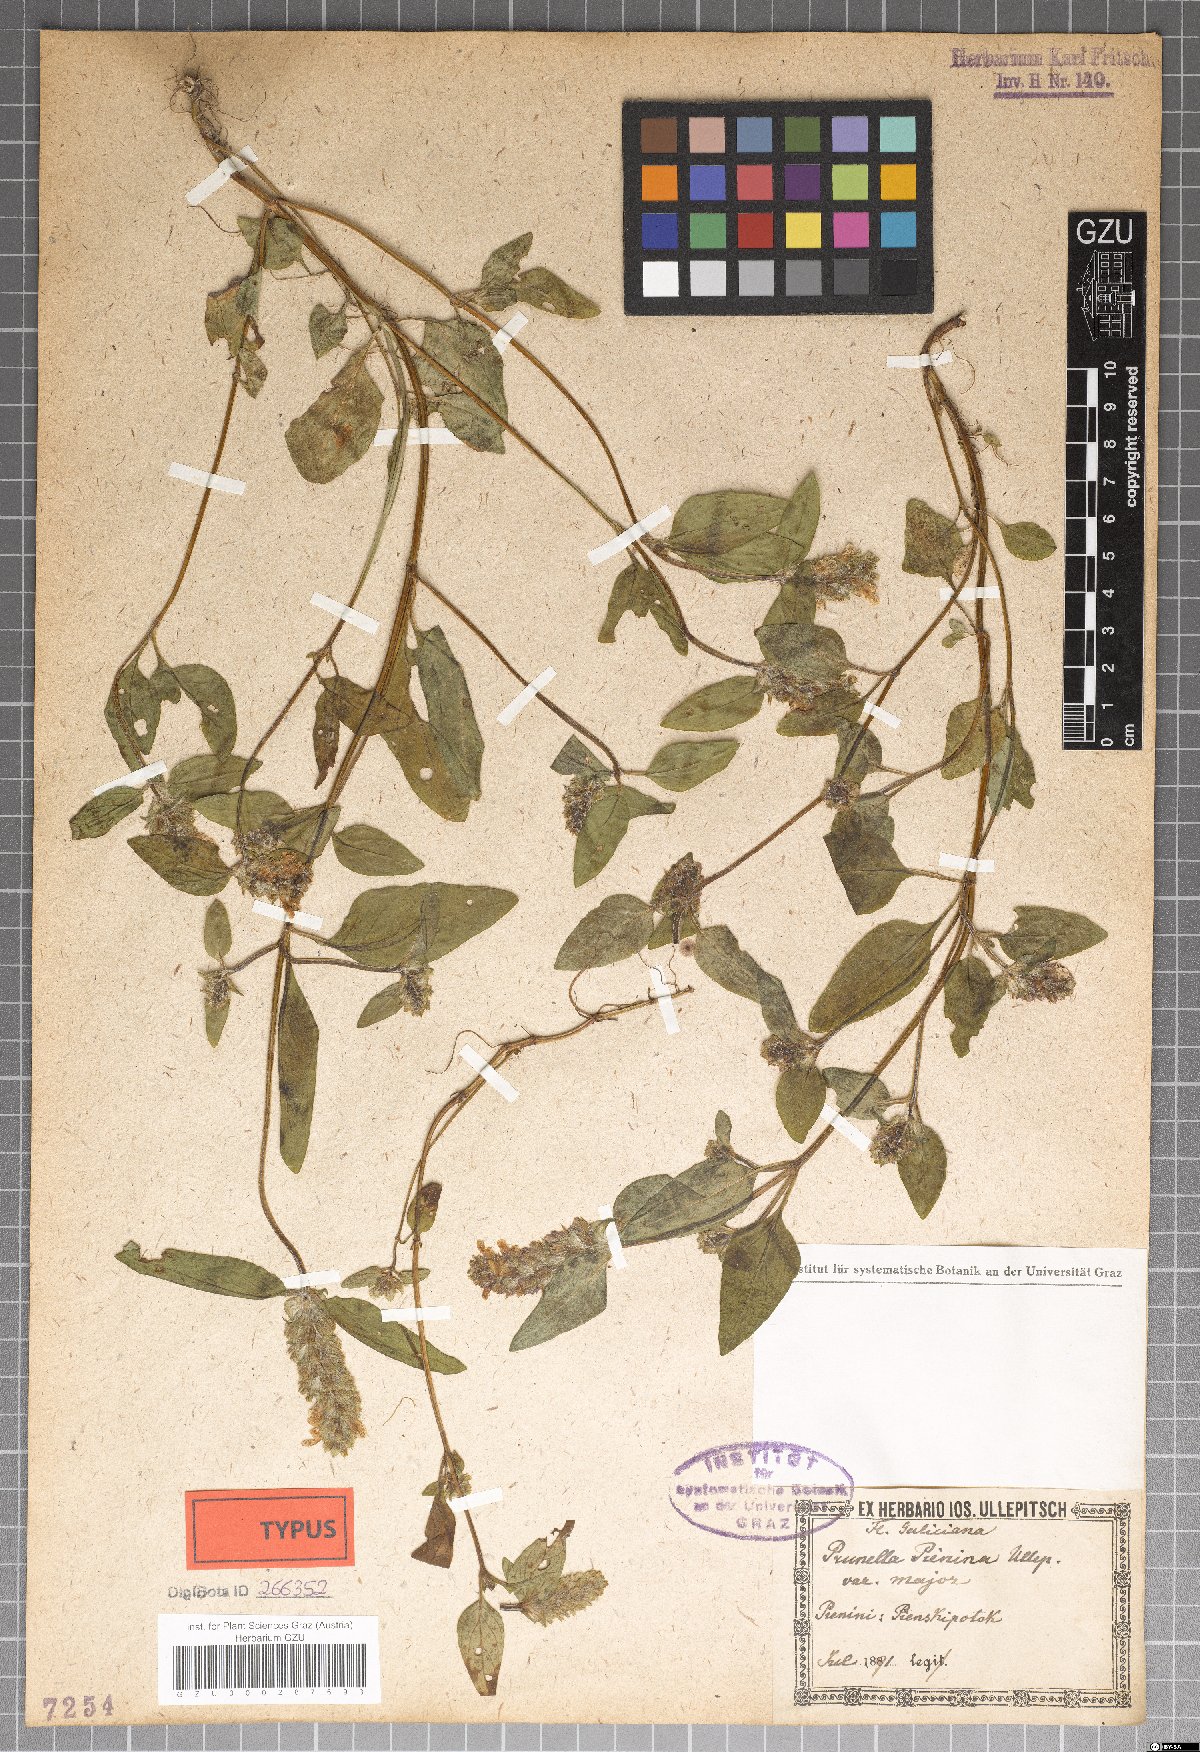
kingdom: Plantae
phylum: Tracheophyta
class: Magnoliopsida
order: Lamiales
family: Lamiaceae
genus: Prunella
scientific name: Prunella pienina
